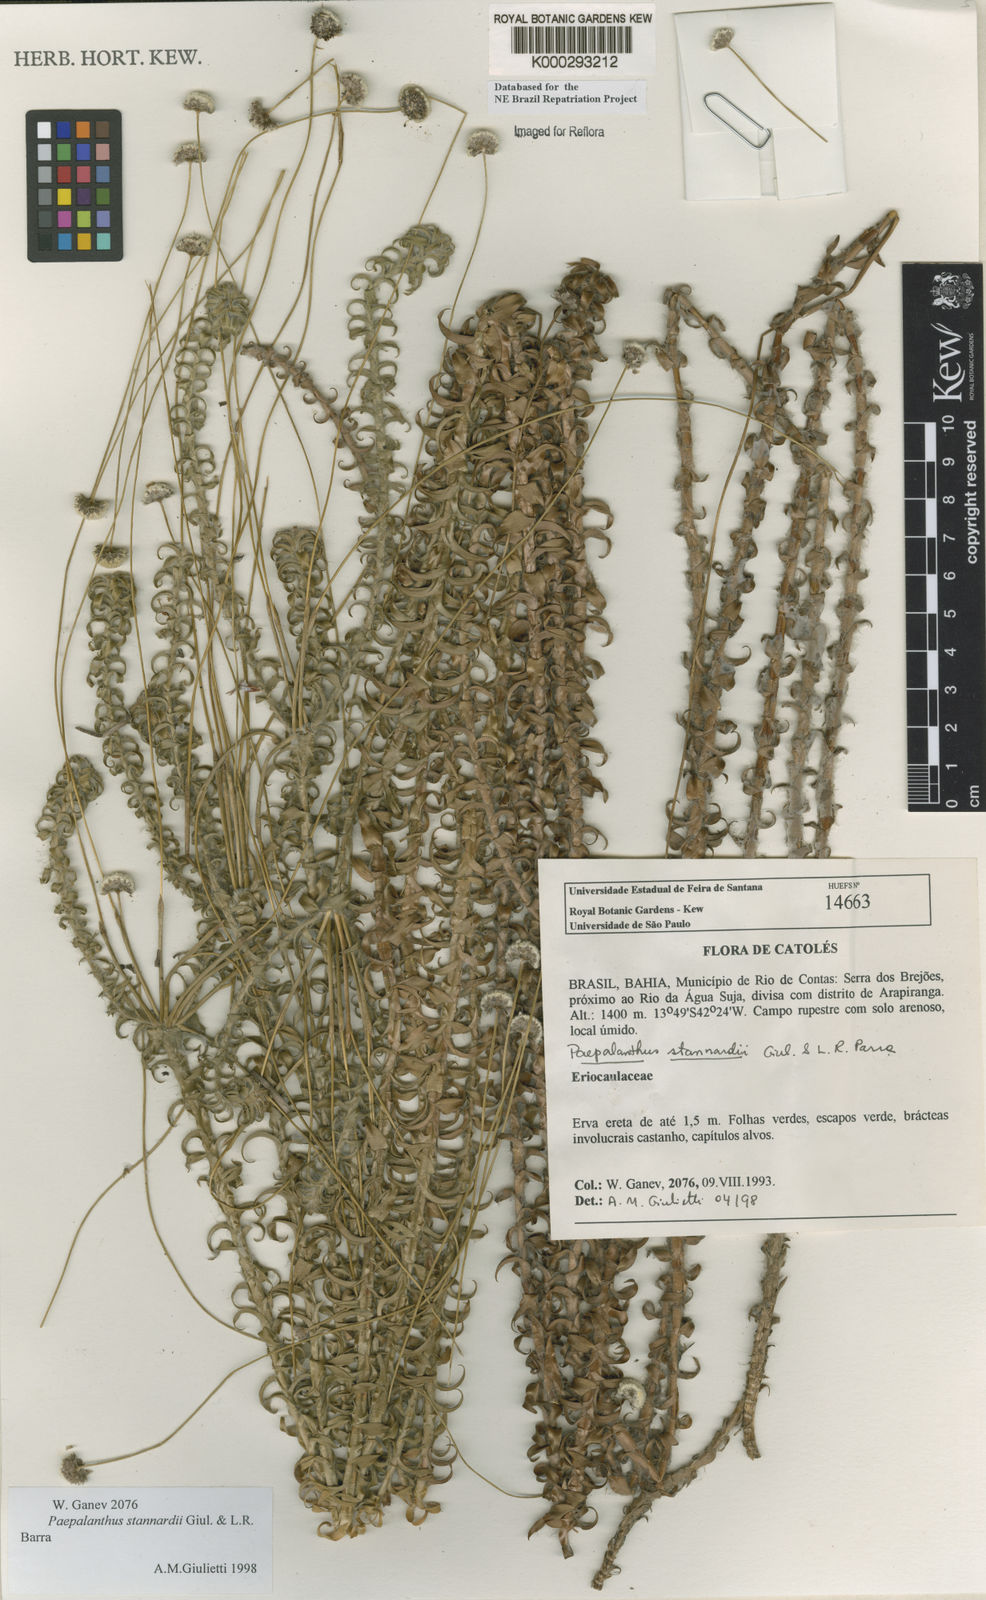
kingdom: Plantae
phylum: Tracheophyta
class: Liliopsida
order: Poales
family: Eriocaulaceae
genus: Paepalanthus
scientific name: Paepalanthus stannardii
